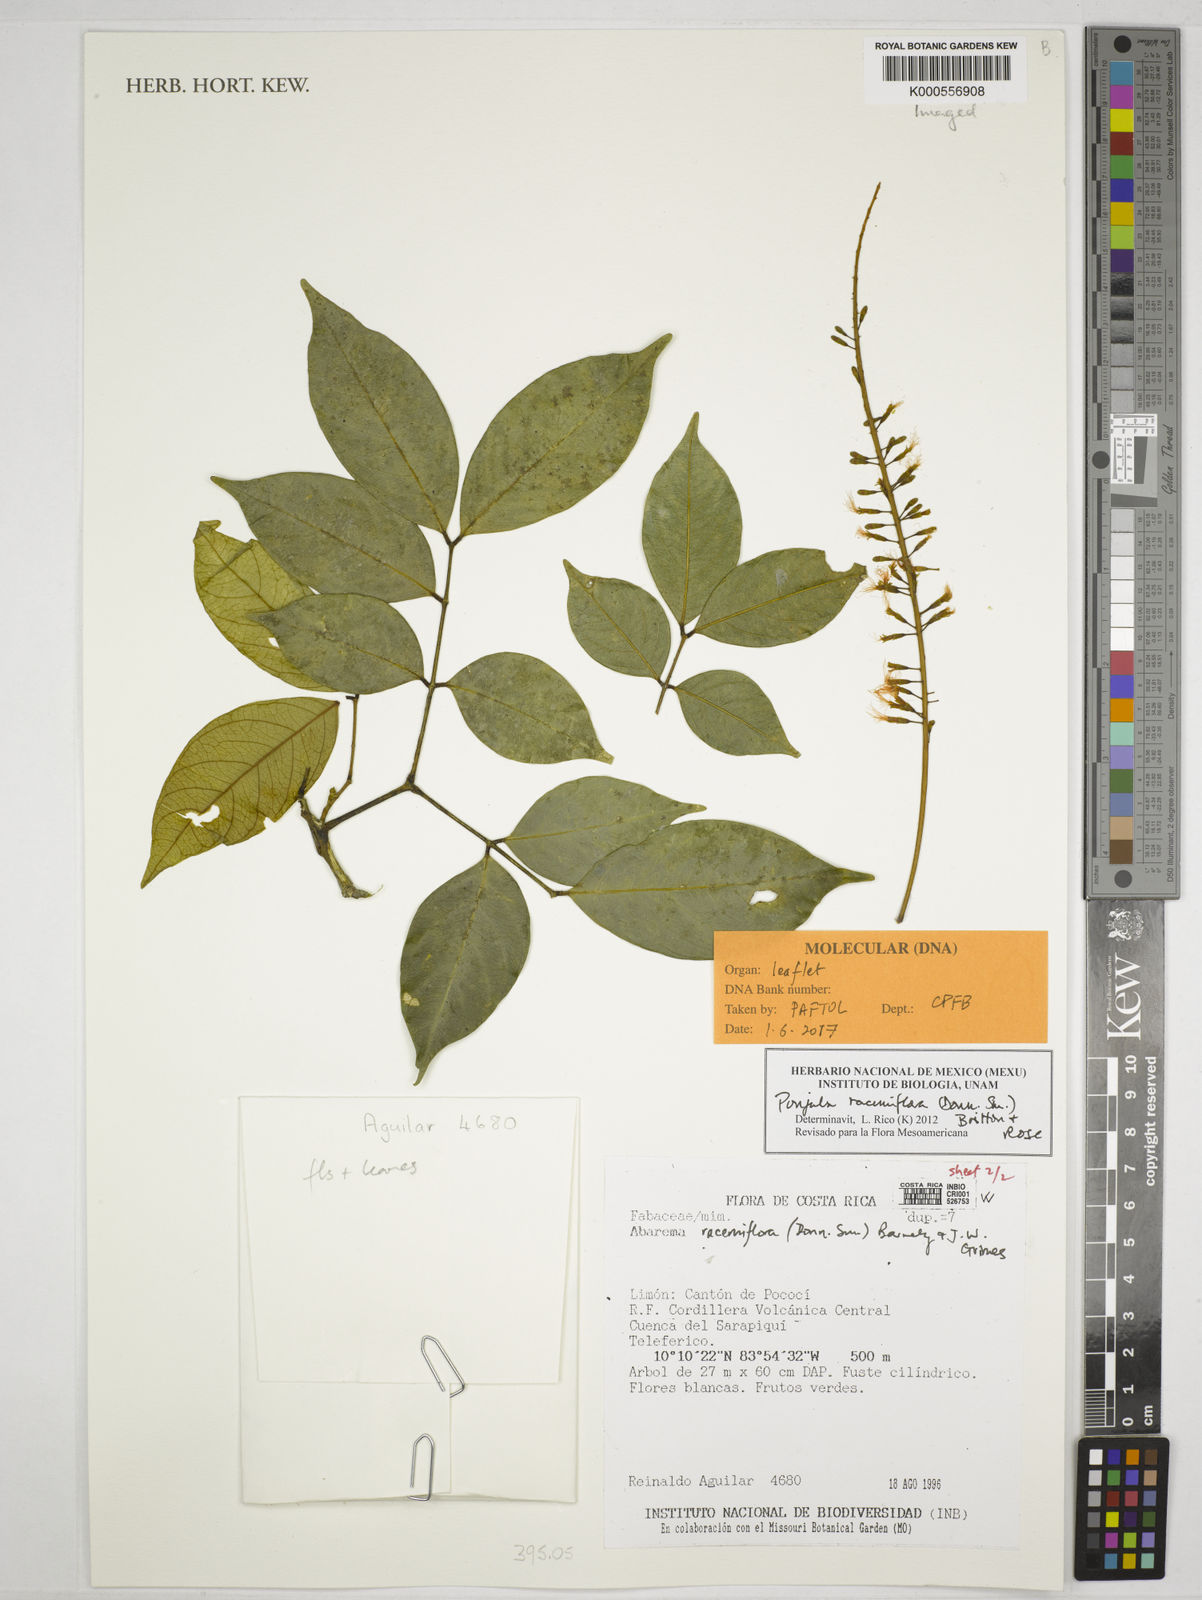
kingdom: Plantae
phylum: Tracheophyta
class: Magnoliopsida
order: Fabales
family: Fabaceae
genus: Punjuba
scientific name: Punjuba racemiflora
